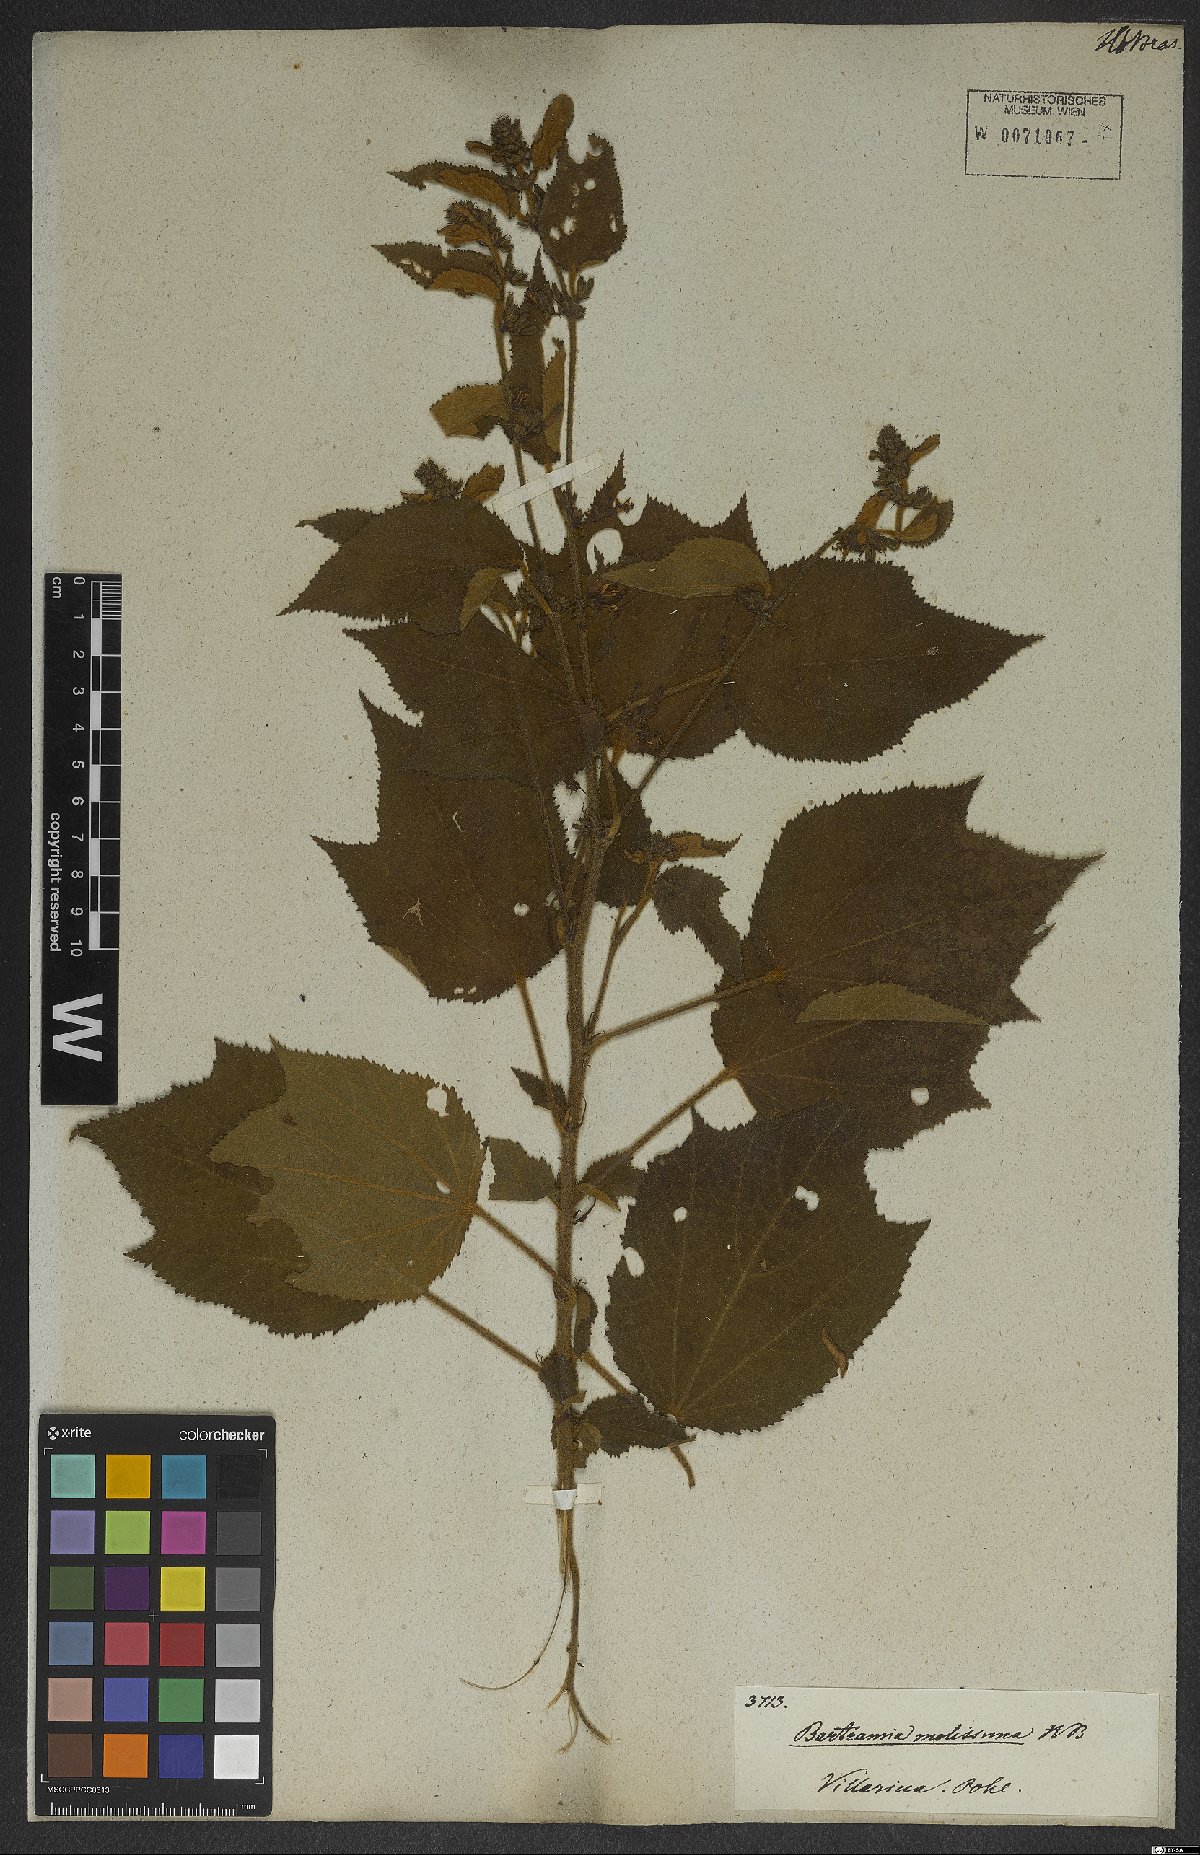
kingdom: Plantae
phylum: Tracheophyta
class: Magnoliopsida
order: Malvales
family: Malvaceae
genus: Triumfetta
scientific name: Triumfetta mollissima
